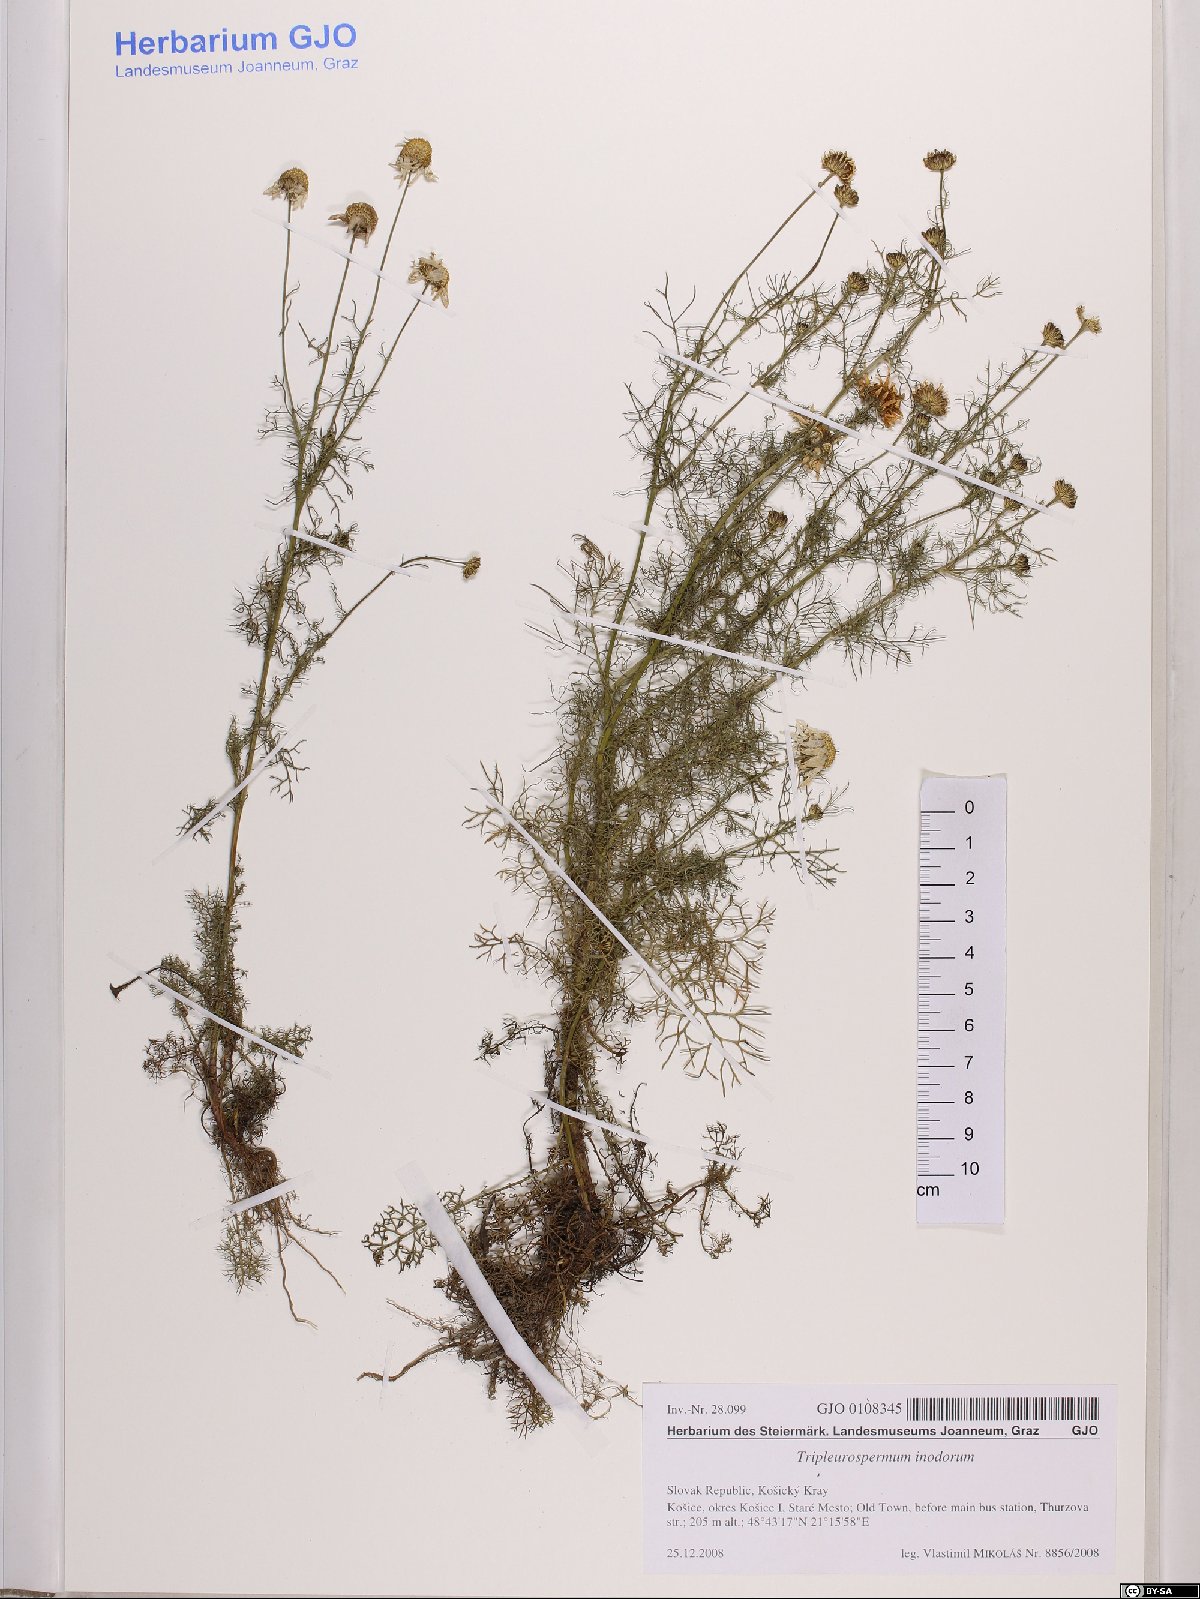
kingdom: Plantae
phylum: Tracheophyta
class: Magnoliopsida
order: Asterales
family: Asteraceae
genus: Tripleurospermum
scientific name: Tripleurospermum inodorum
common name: Scentless mayweed
